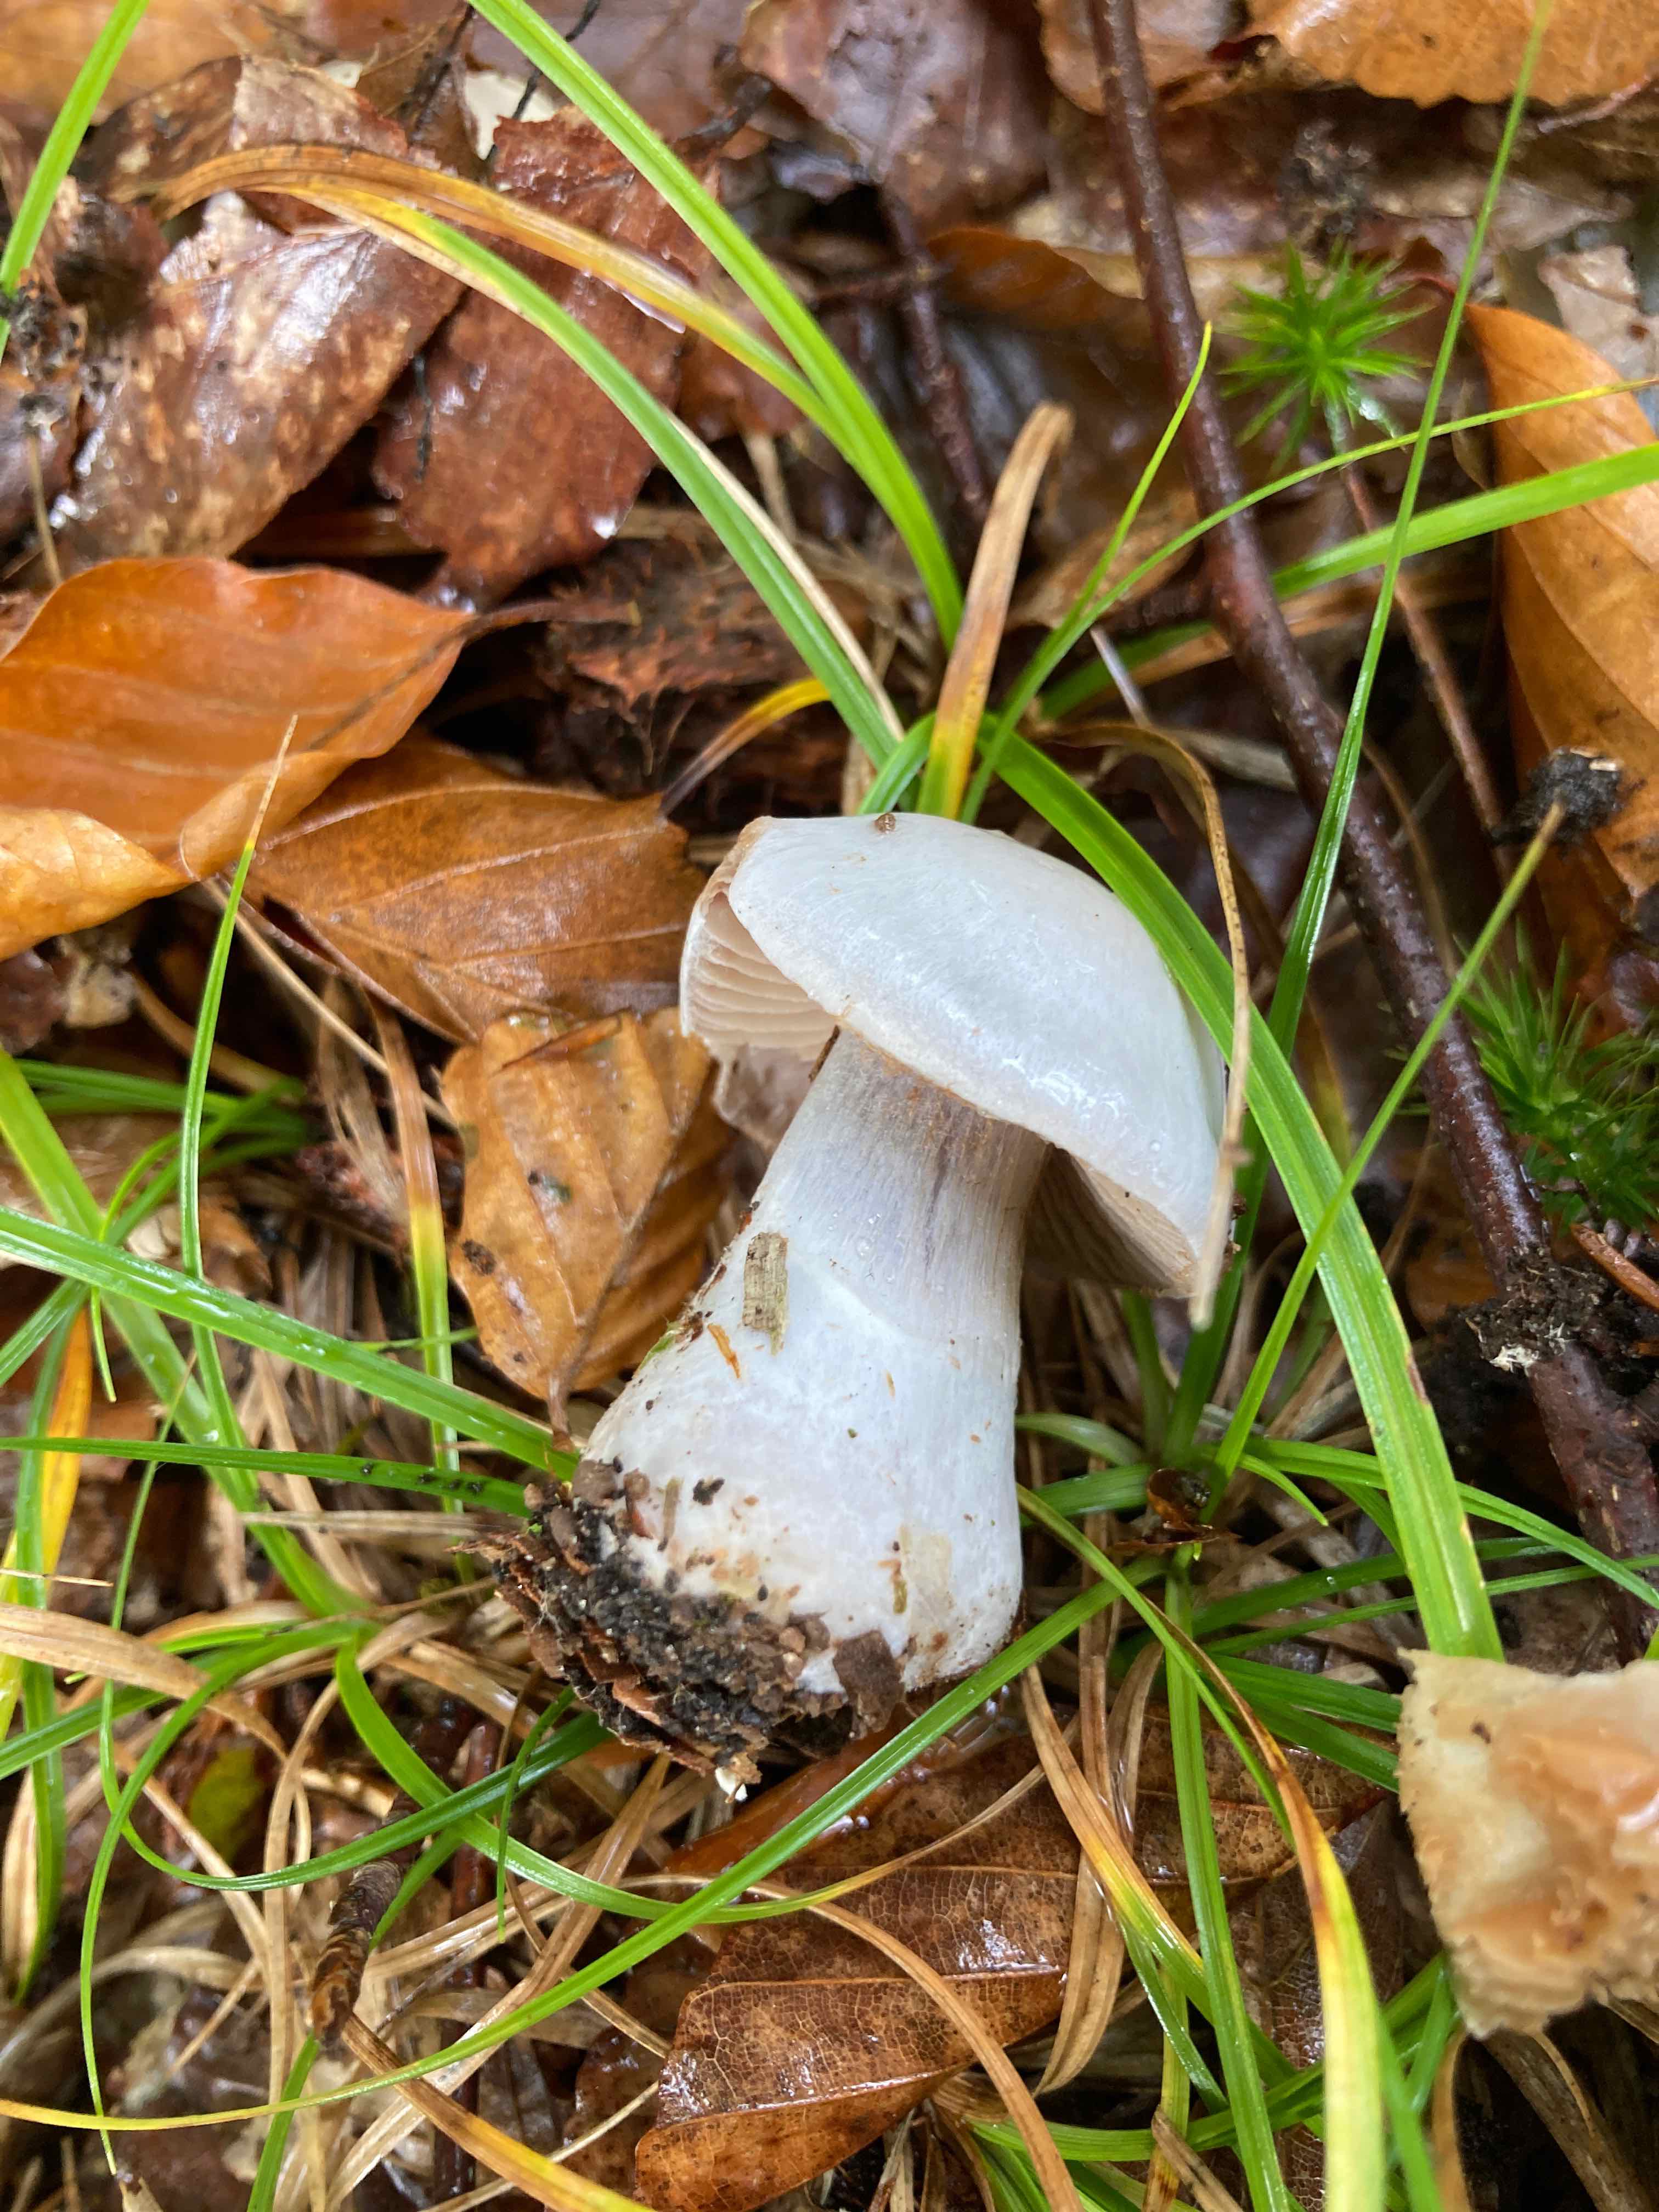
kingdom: Fungi
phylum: Basidiomycota
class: Agaricomycetes
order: Agaricales
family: Cortinariaceae
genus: Cortinarius
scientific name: Cortinarius alboviolaceus
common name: lysviolet slørhat
